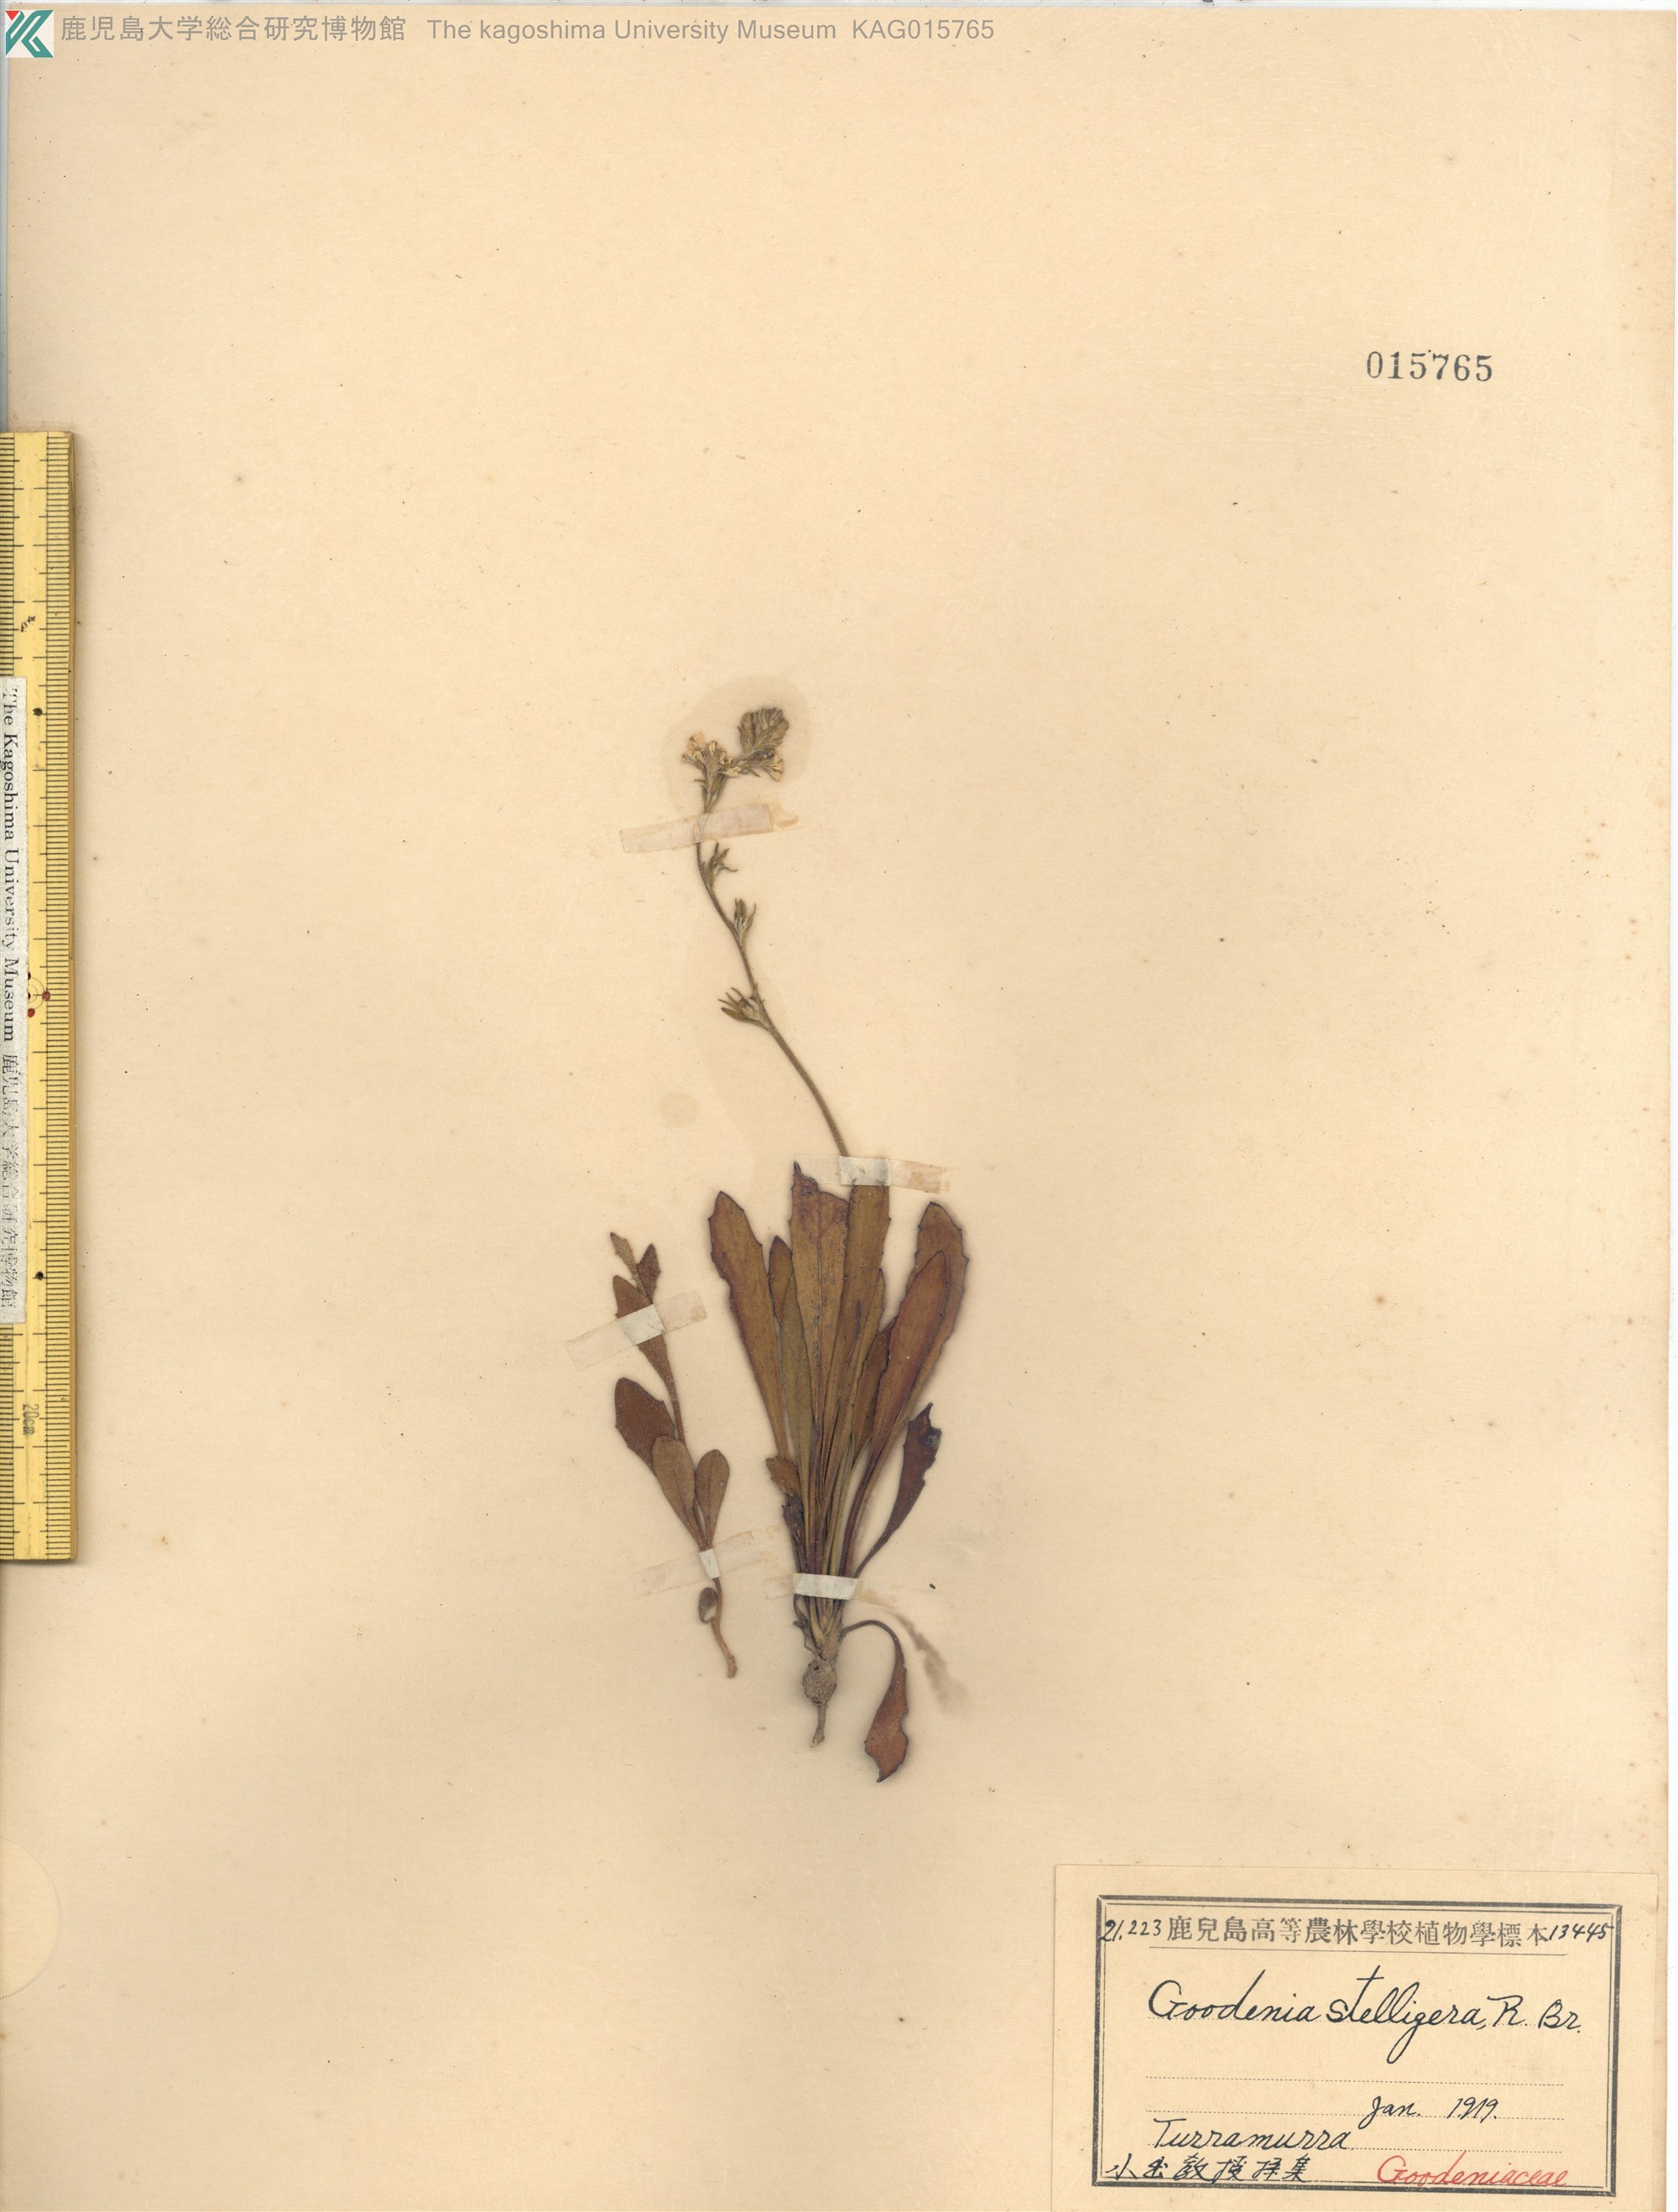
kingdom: Plantae
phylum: Tracheophyta
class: Magnoliopsida
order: Asterales
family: Goodeniaceae
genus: Goodenia
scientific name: Goodenia stelligera
